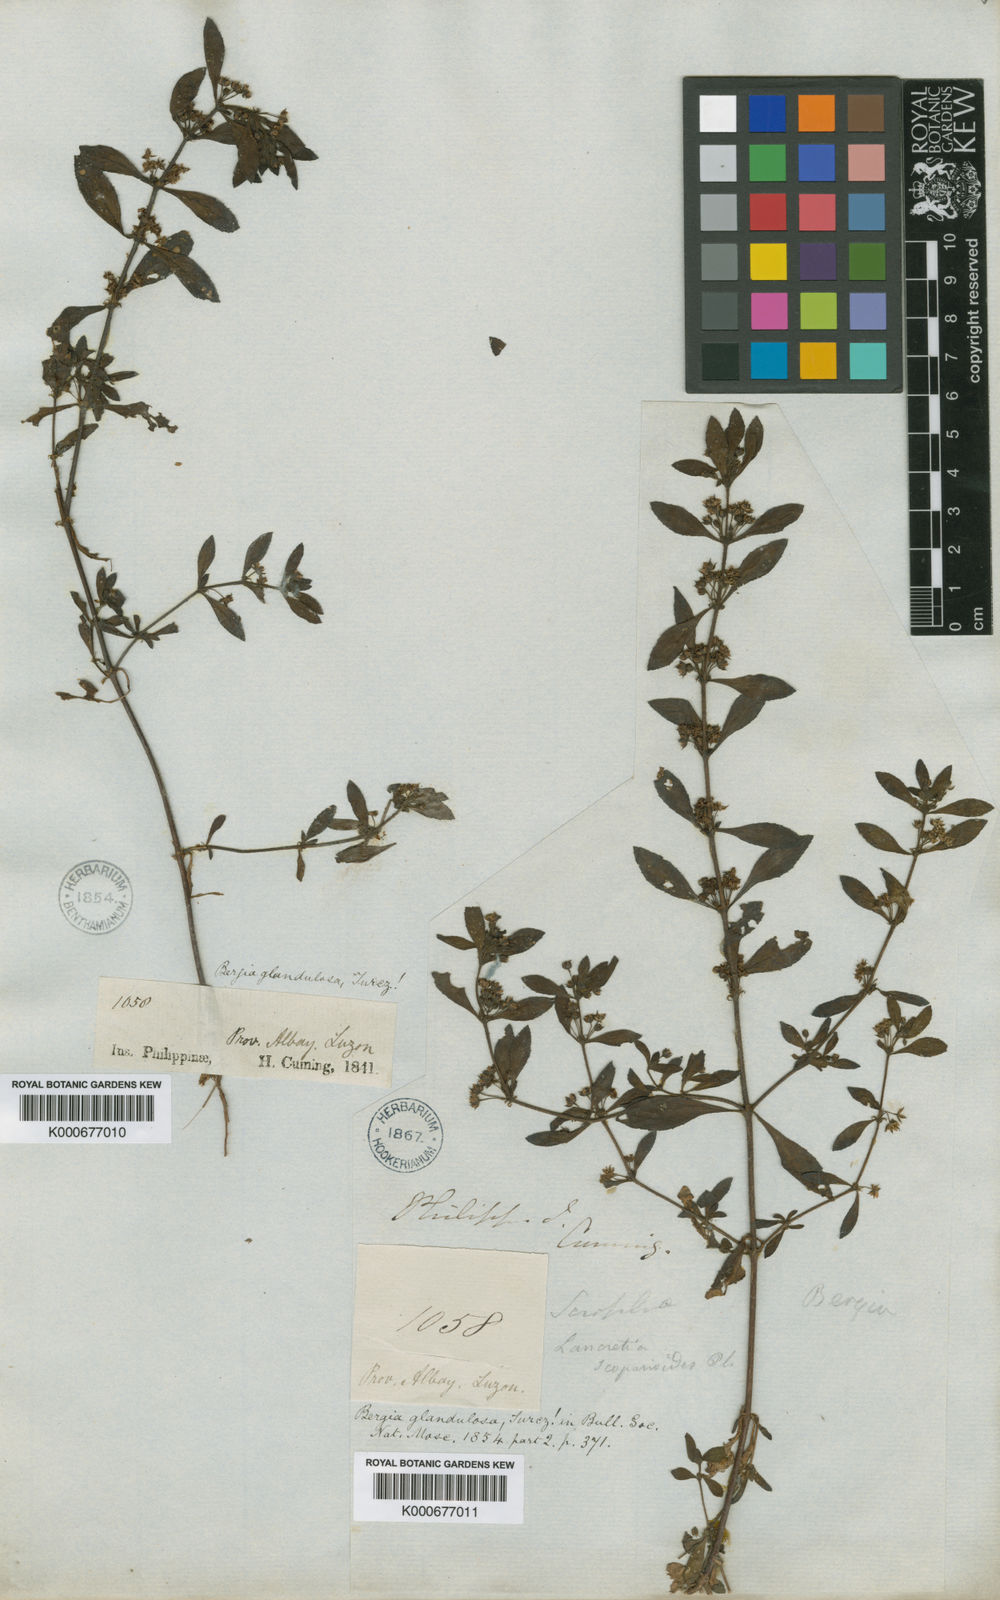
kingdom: Plantae
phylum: Tracheophyta
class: Magnoliopsida
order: Malpighiales
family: Elatinaceae
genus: Bergia
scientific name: Bergia ammannioides
